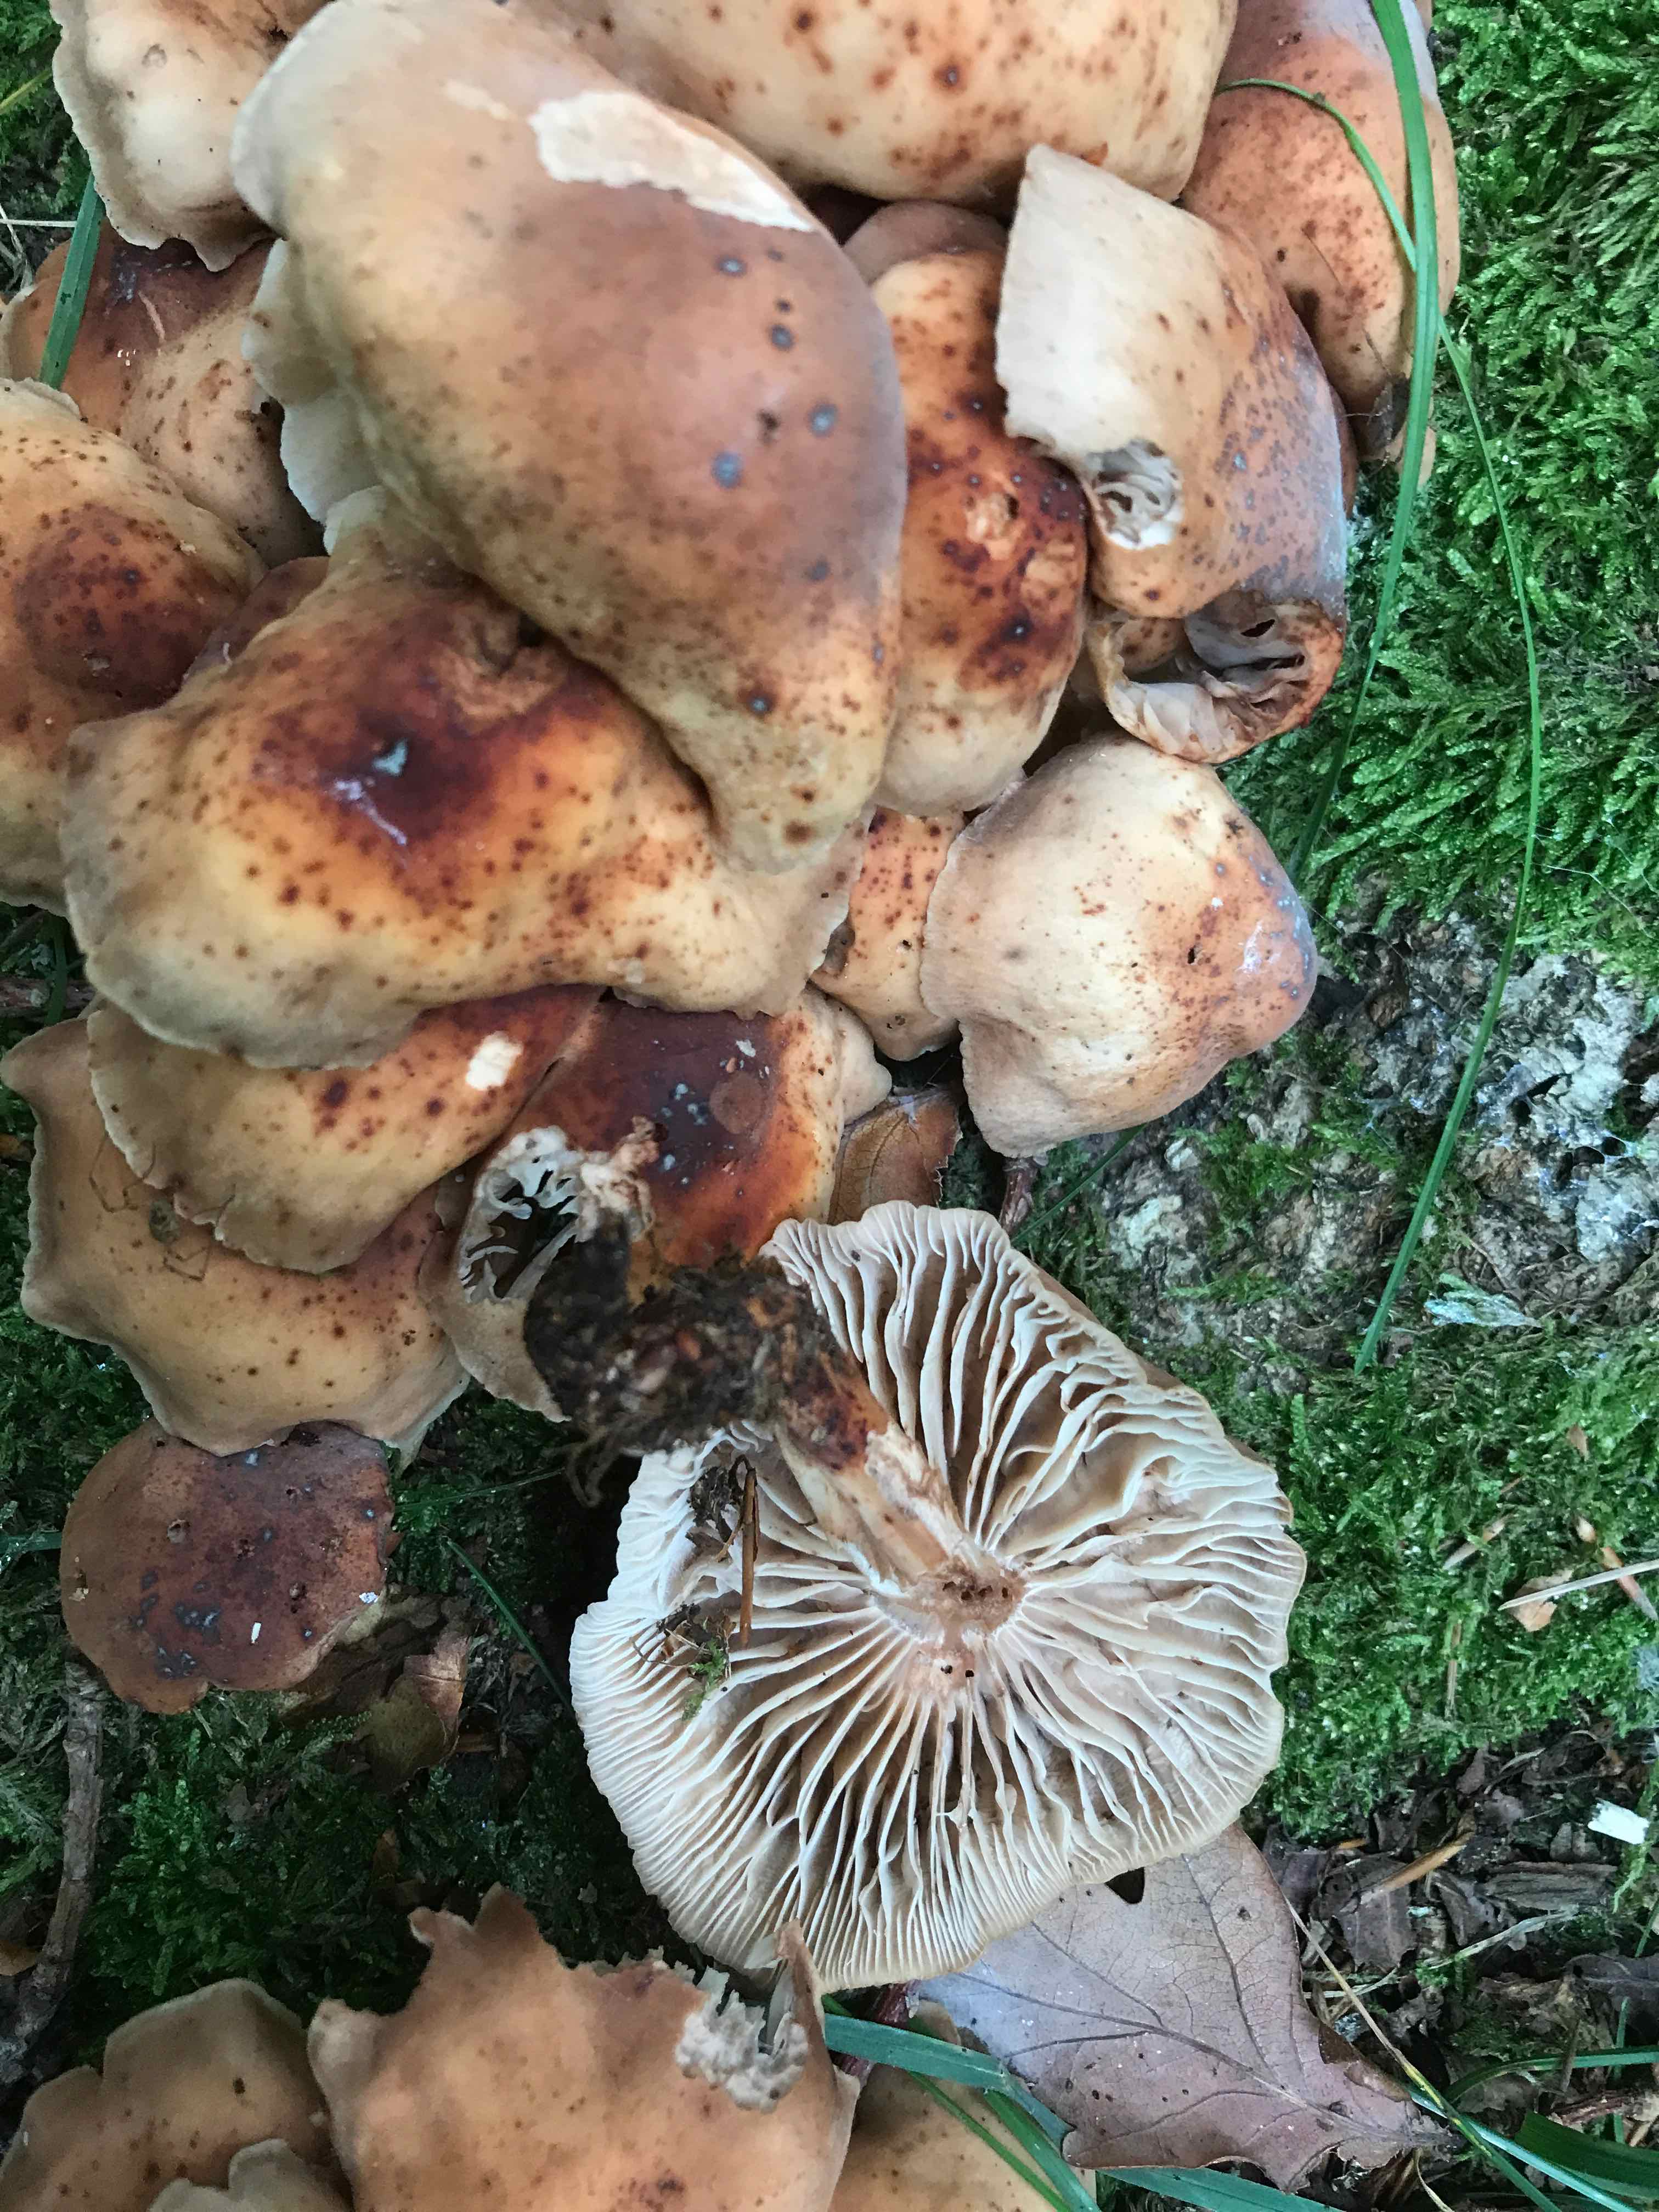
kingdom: Fungi
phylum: Basidiomycota
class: Agaricomycetes
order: Agaricales
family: Omphalotaceae
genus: Gymnopus
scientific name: Gymnopus fusipes
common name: tenstokket fladhat
